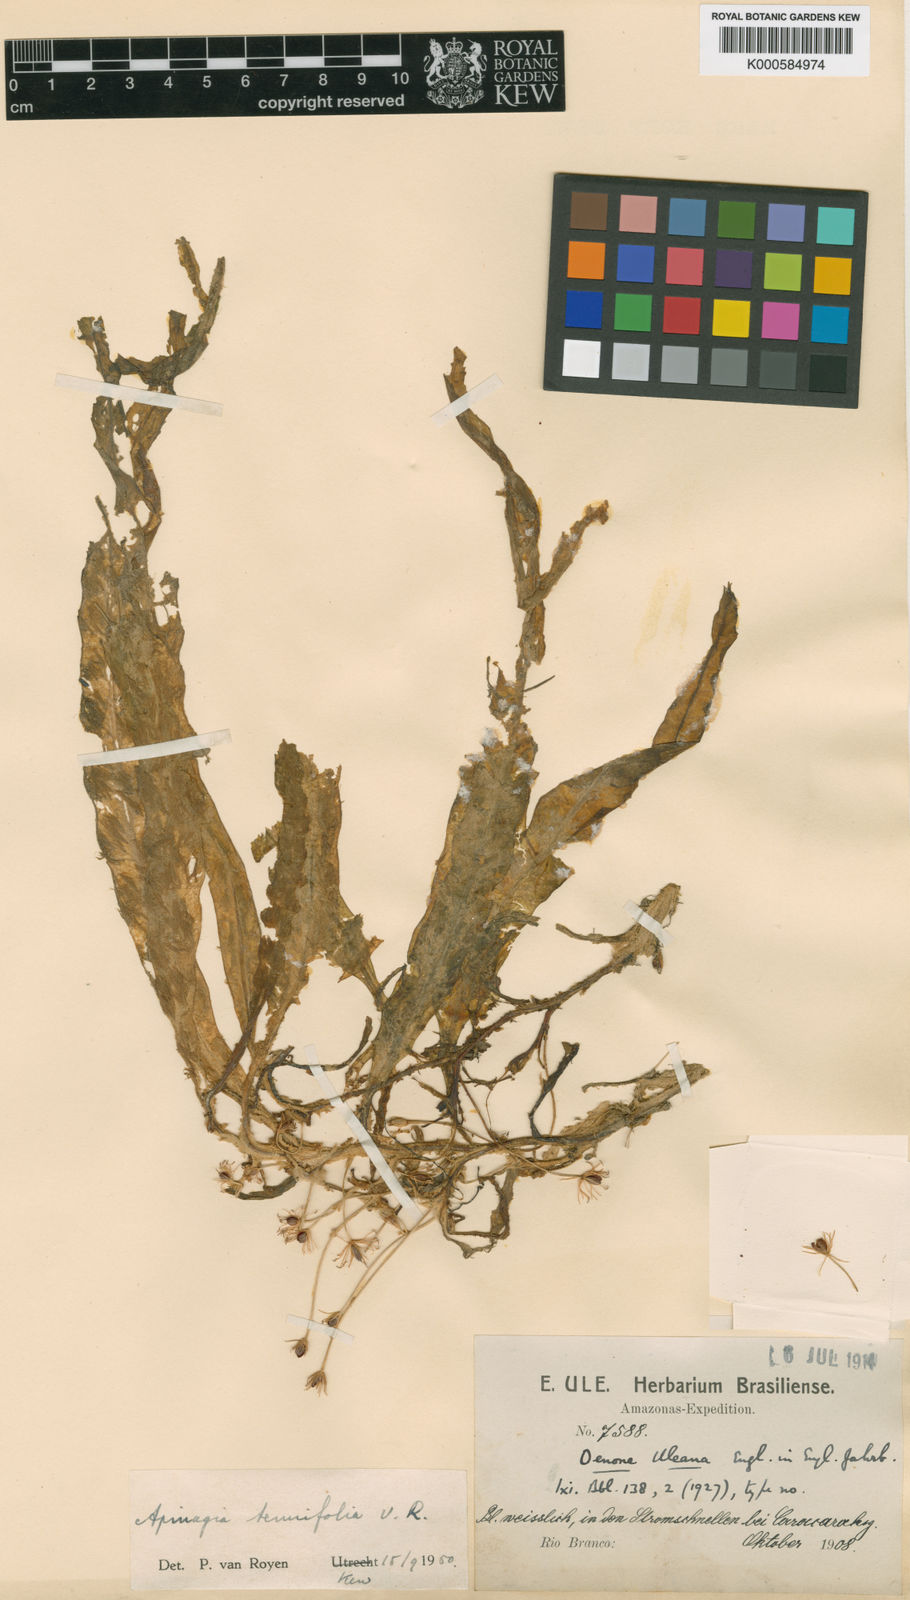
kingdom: Plantae
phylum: Tracheophyta
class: Magnoliopsida
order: Malpighiales
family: Podostemaceae
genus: Apinagia
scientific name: Apinagia tenuifolia
